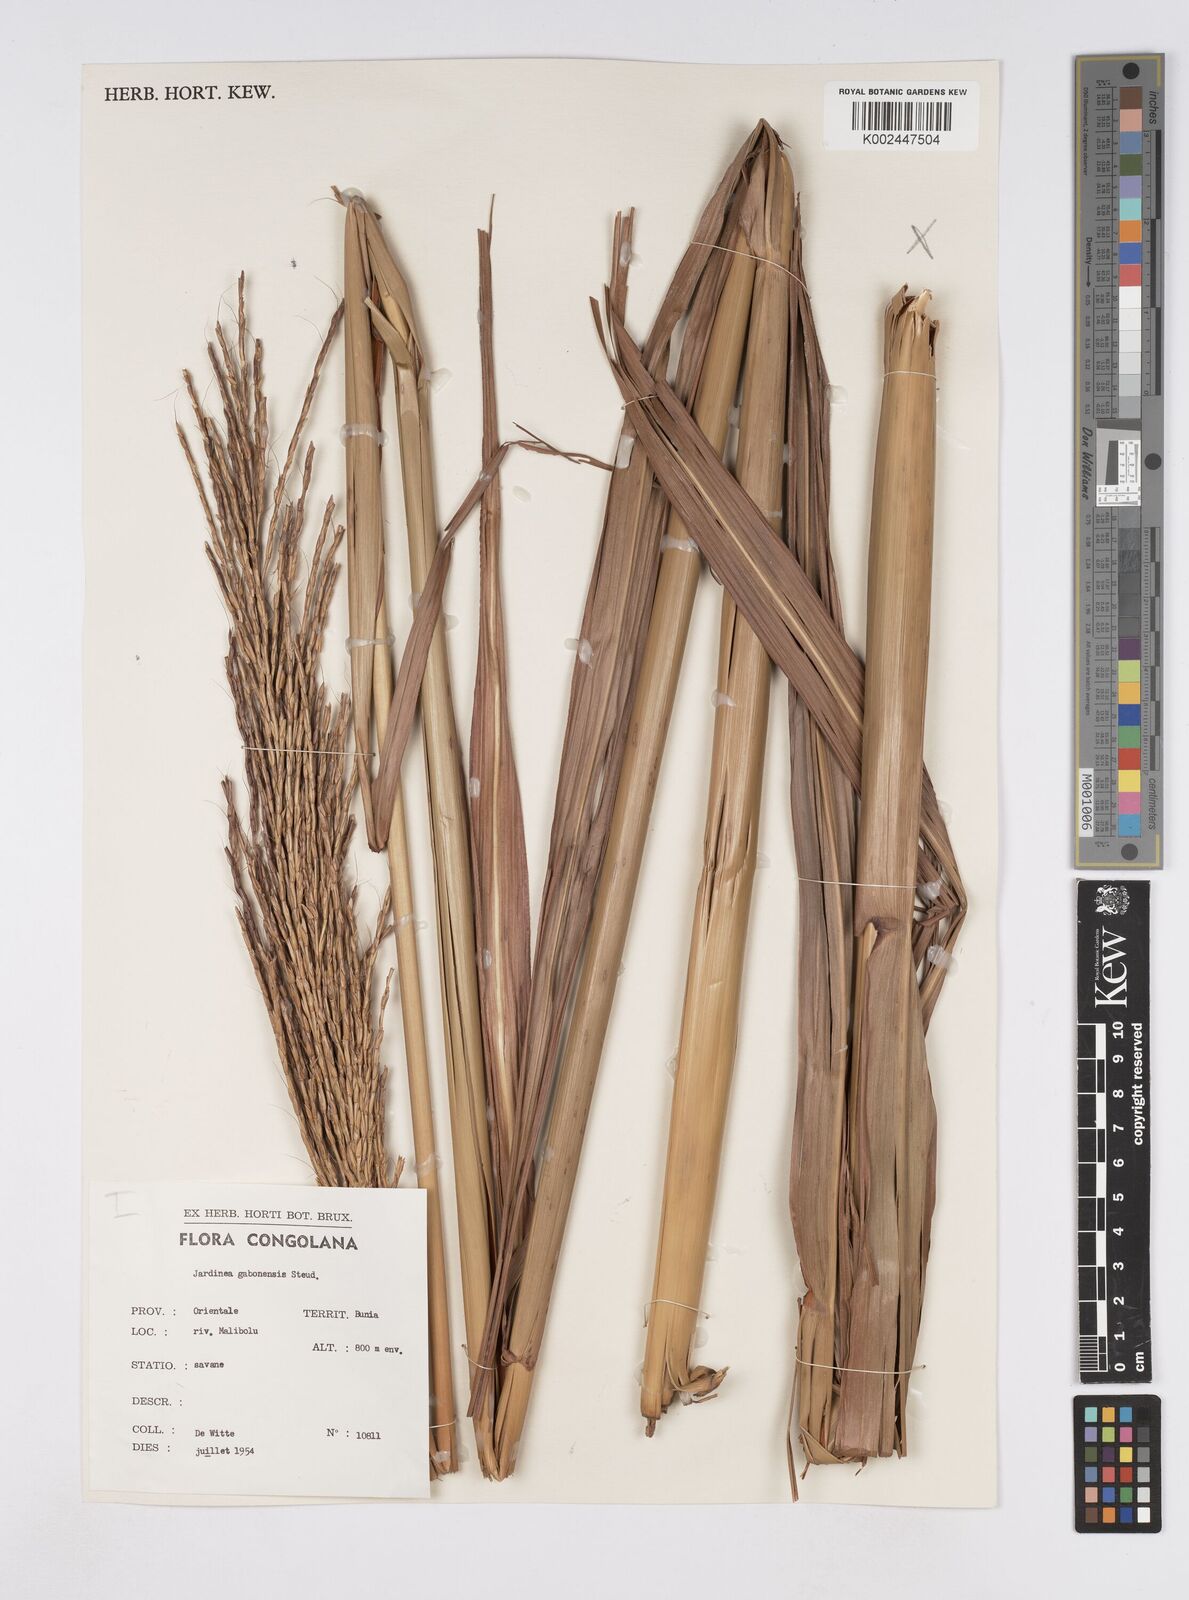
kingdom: Plantae
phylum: Tracheophyta
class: Liliopsida
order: Poales
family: Poaceae
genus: Urelytrum
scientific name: Urelytrum giganteum
